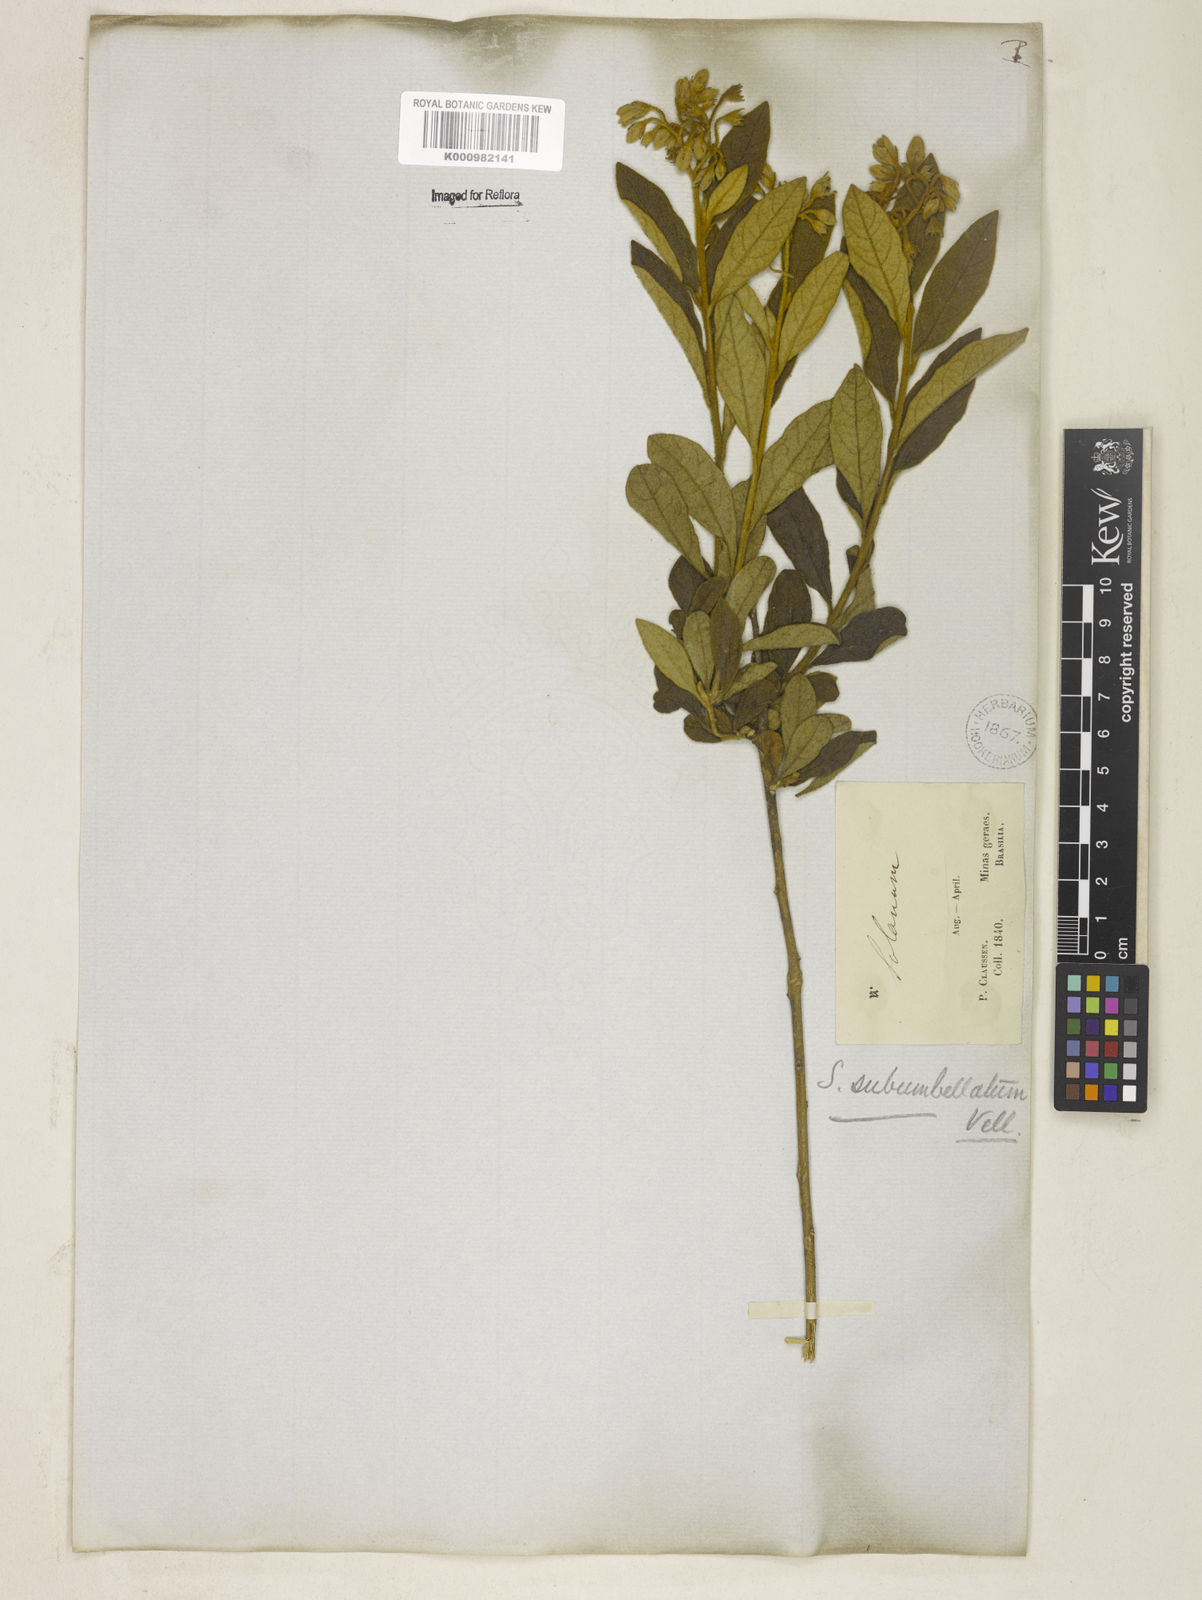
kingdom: Plantae
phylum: Tracheophyta
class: Magnoliopsida
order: Solanales
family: Solanaceae
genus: Solanum
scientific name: Solanum subumbellatum
